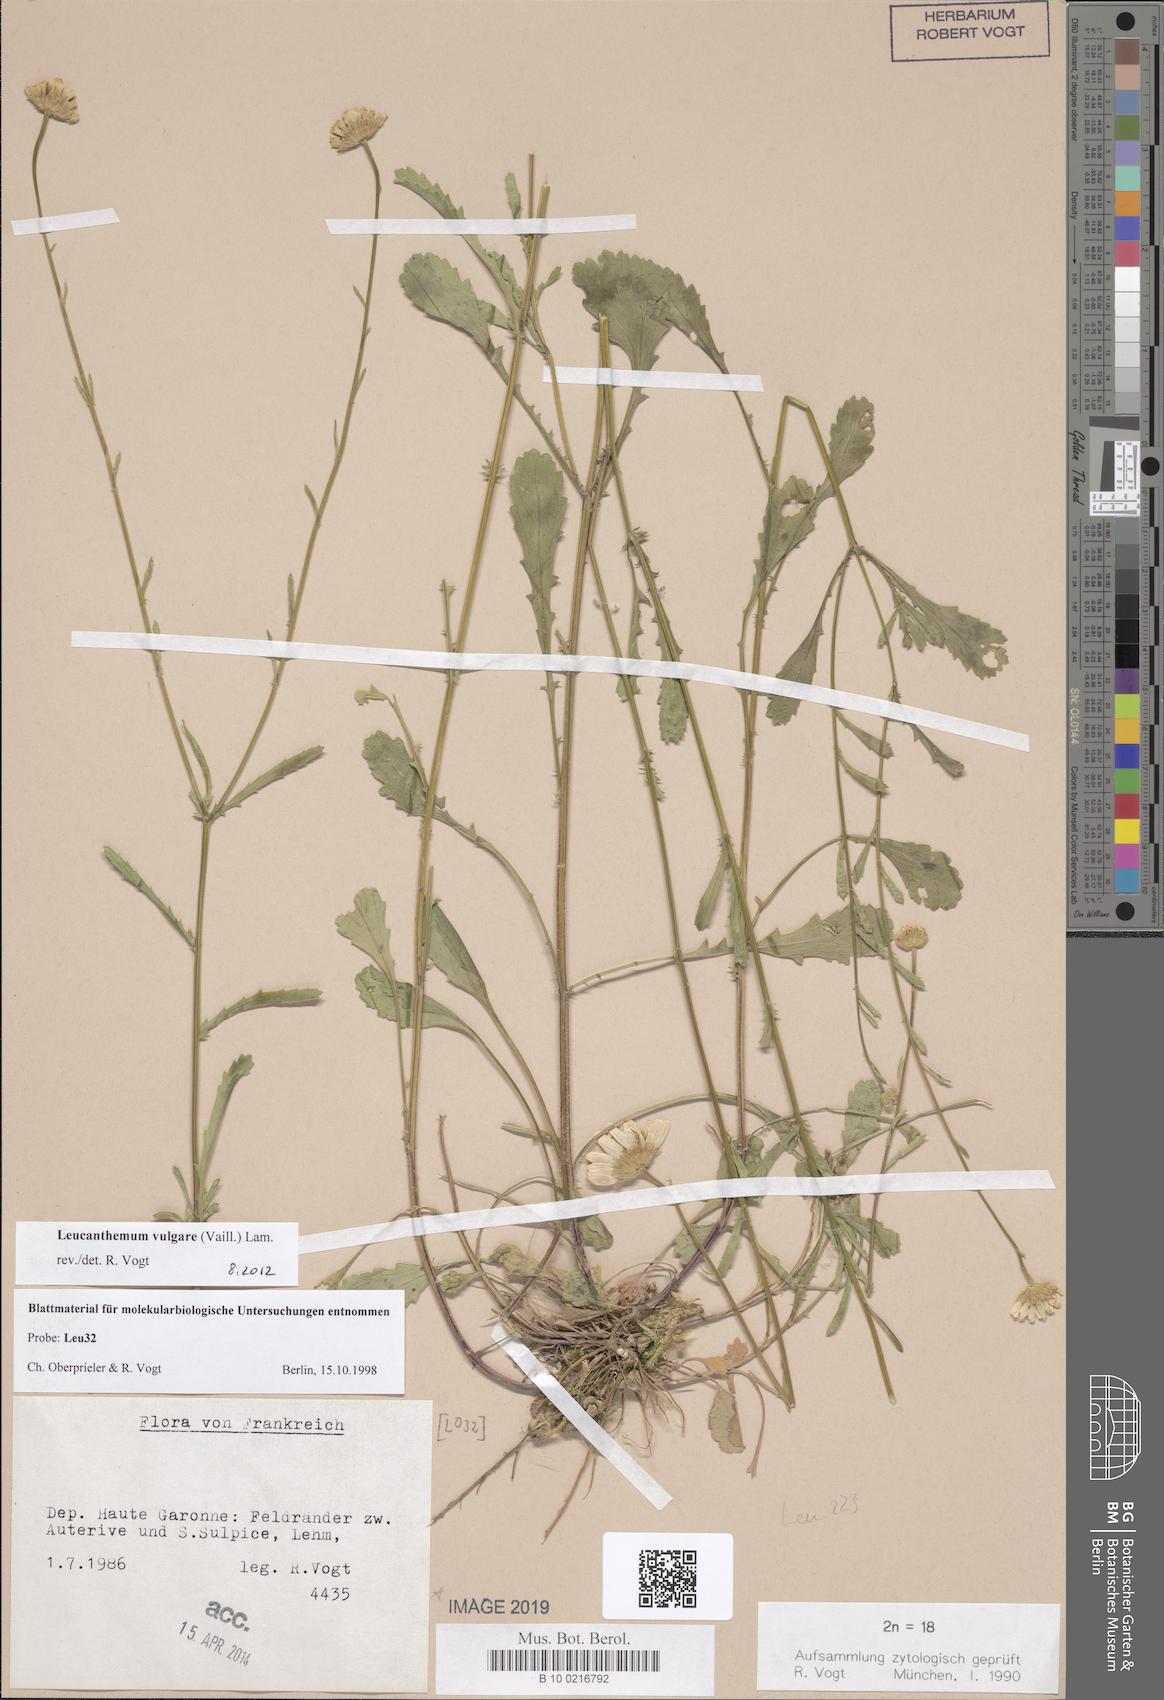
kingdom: Plantae
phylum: Tracheophyta
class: Magnoliopsida
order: Asterales
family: Asteraceae
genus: Leucanthemum
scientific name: Leucanthemum vulgare
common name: Oxeye daisy
